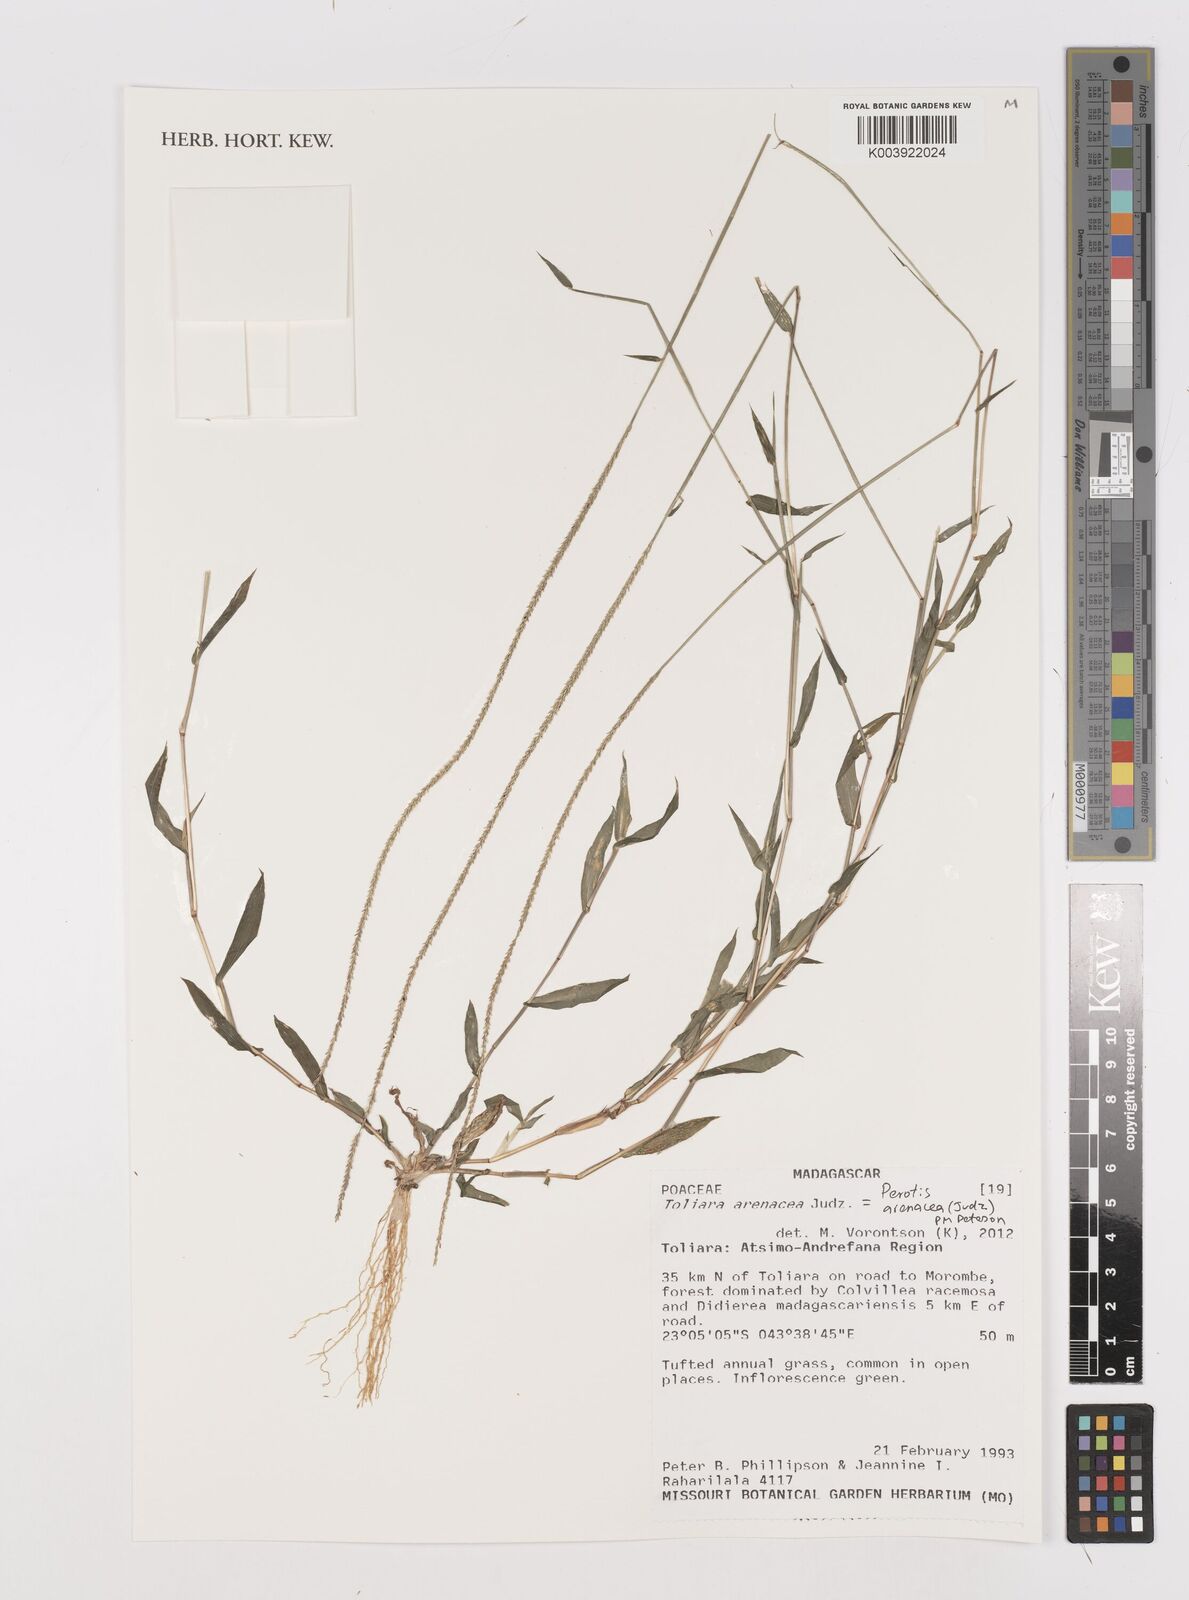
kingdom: Plantae
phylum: Tracheophyta
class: Liliopsida
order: Poales
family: Poaceae
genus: Perotis
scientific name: Perotis arenacea
